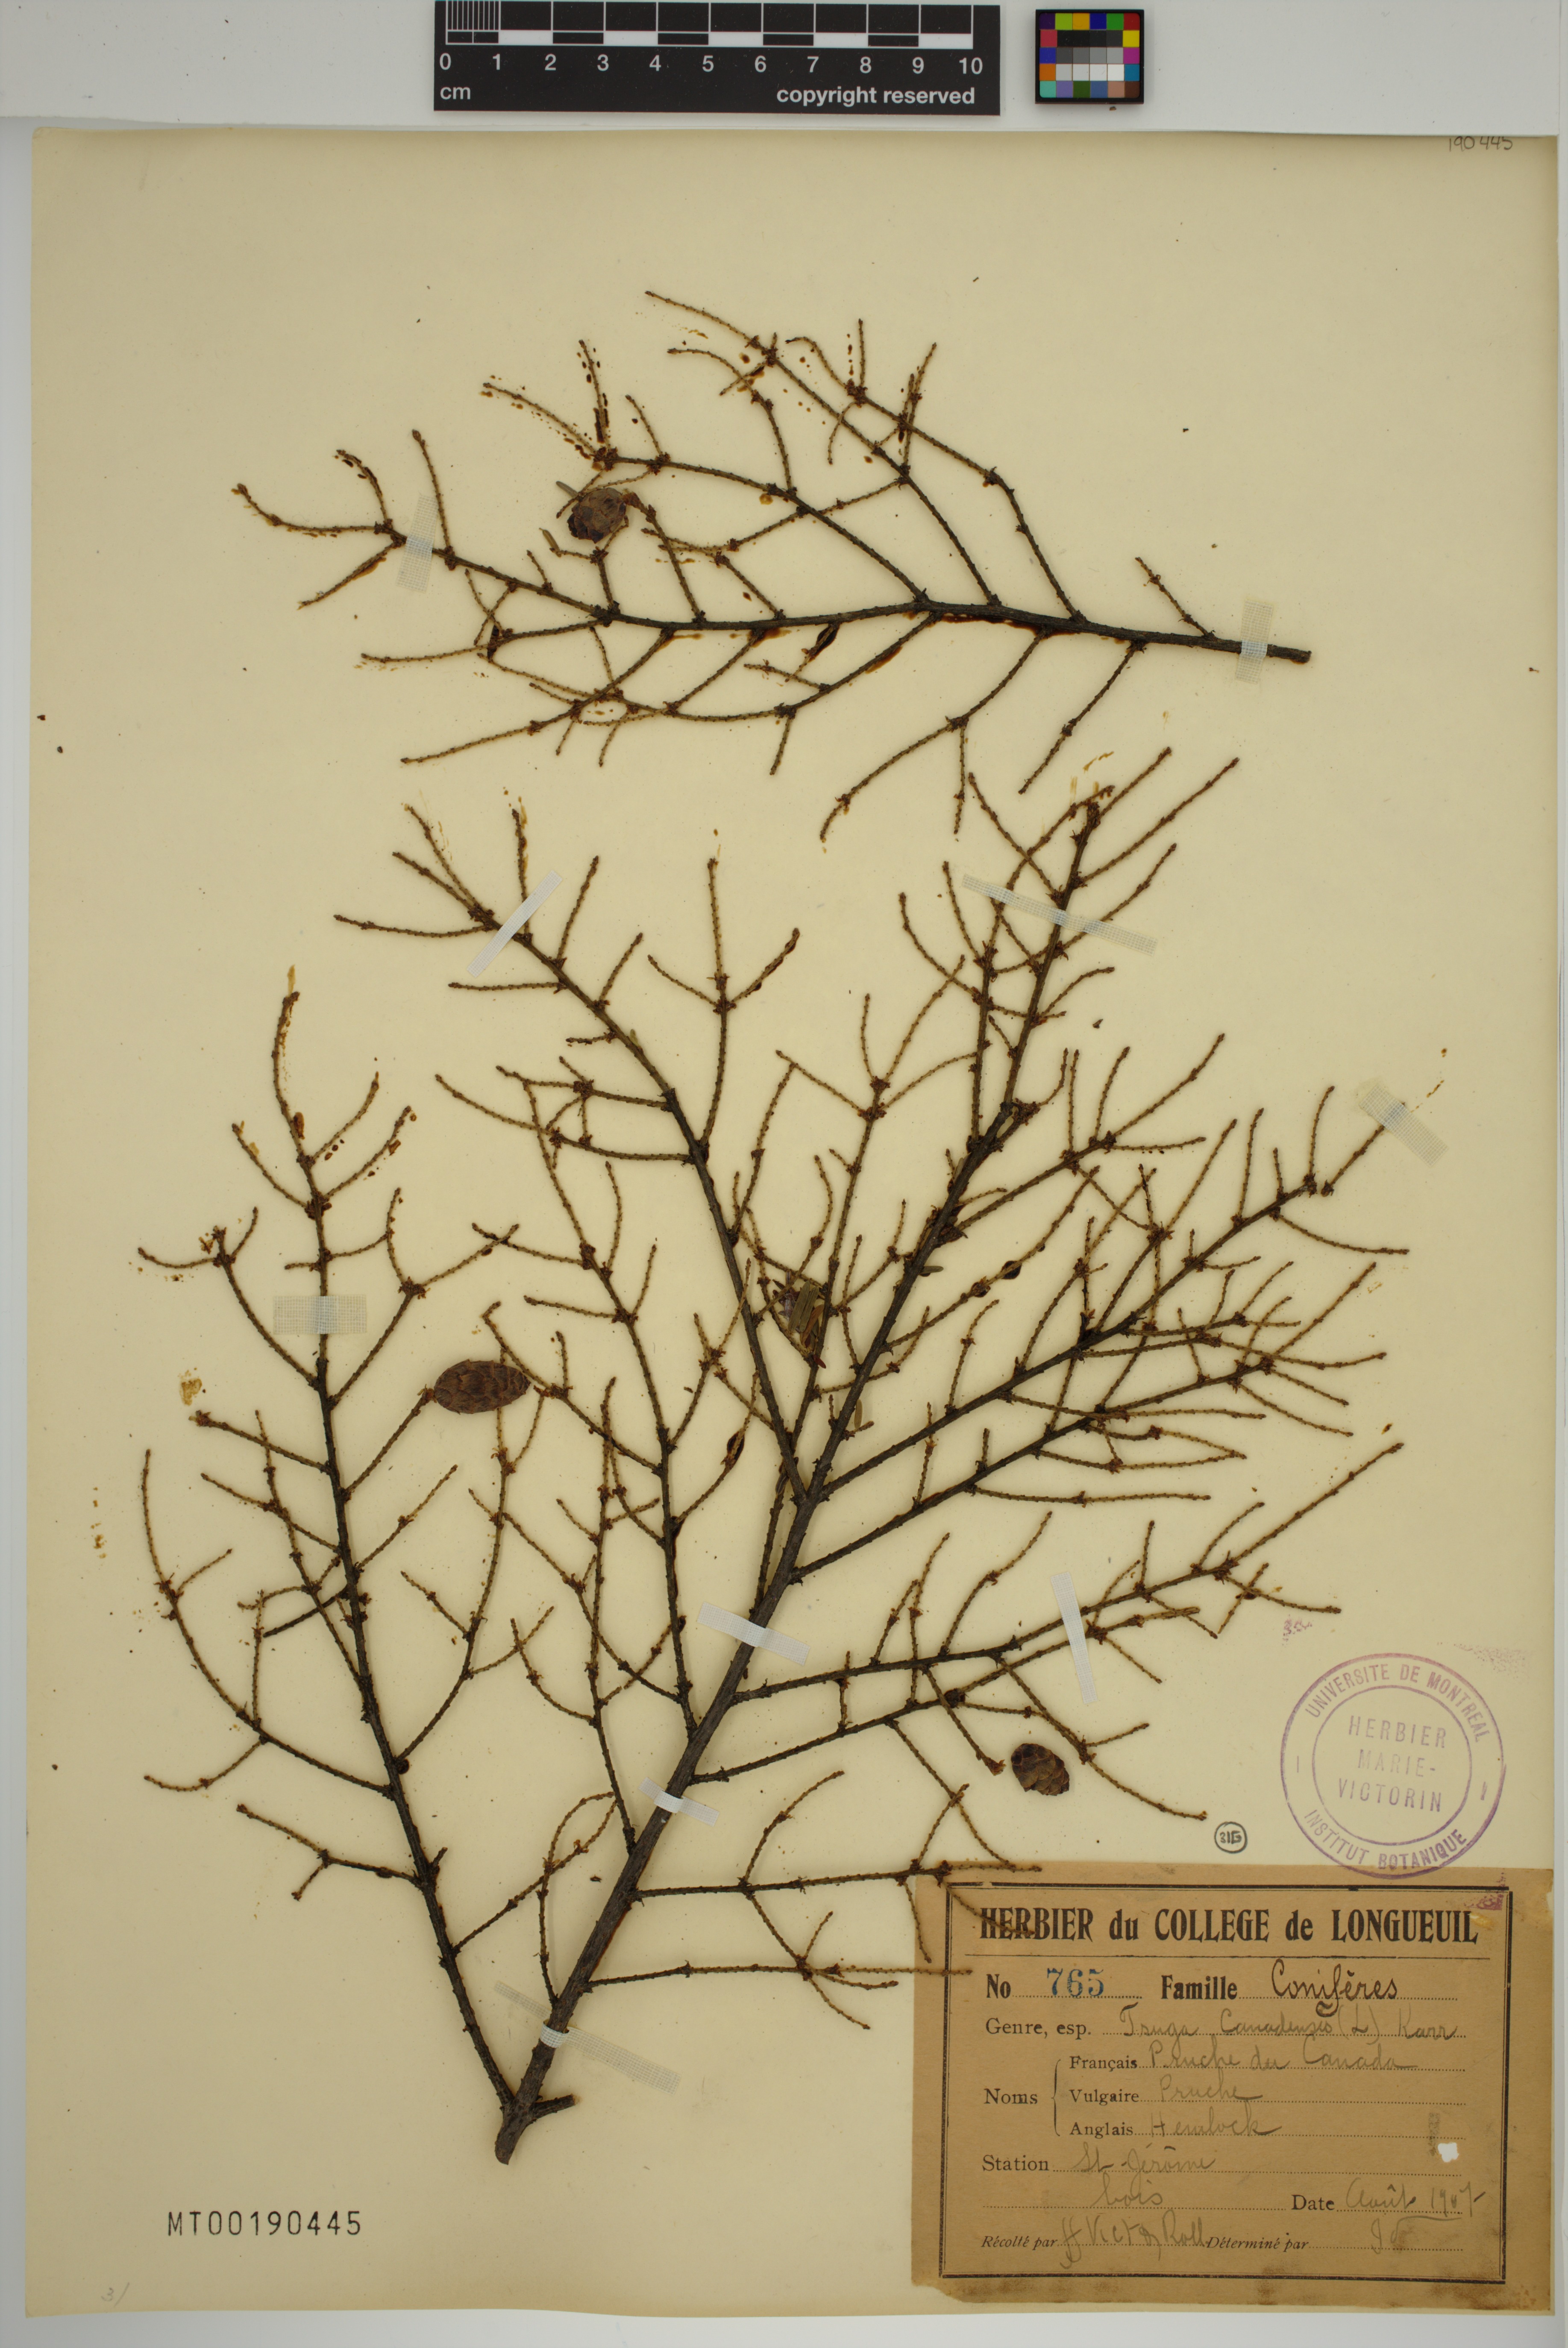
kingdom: Plantae
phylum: Tracheophyta
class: Pinopsida
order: Pinales
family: Pinaceae
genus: Tsuga
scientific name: Tsuga canadensis
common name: Eastern hemlock
